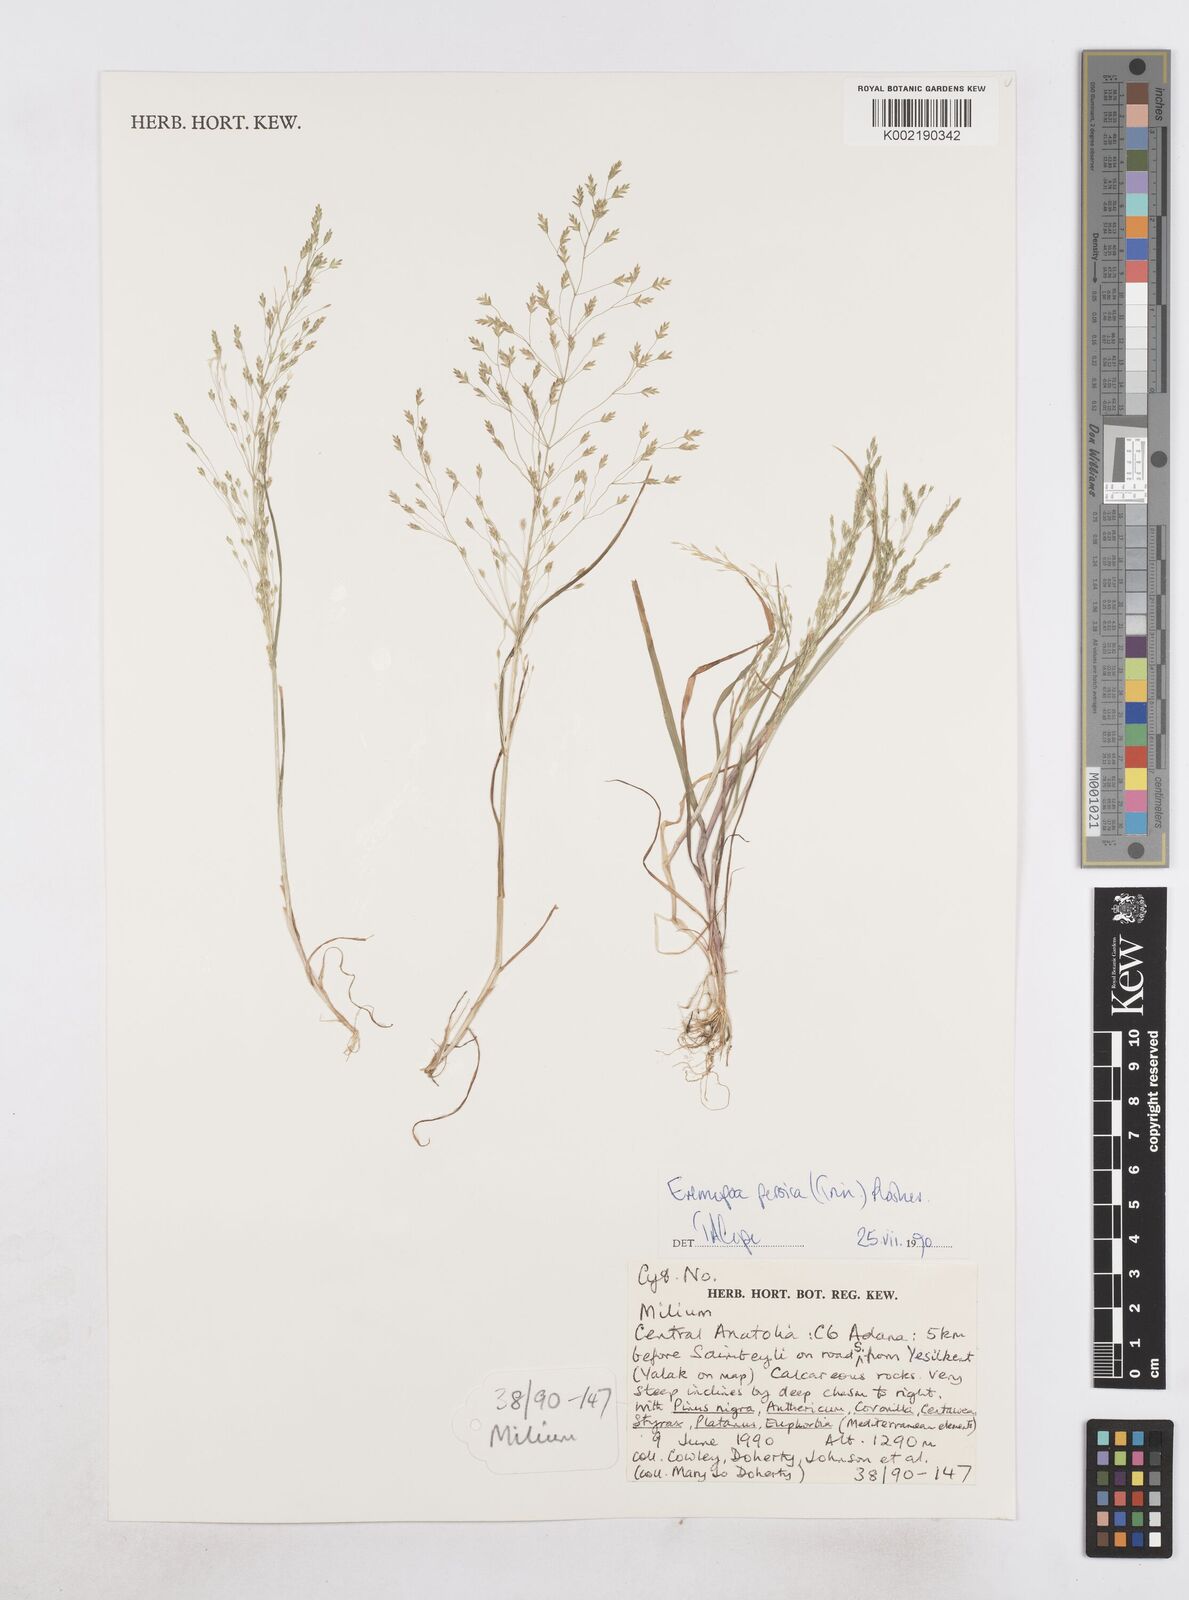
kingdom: Plantae
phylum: Tracheophyta
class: Liliopsida
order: Poales
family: Poaceae
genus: Poa
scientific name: Poa persica
